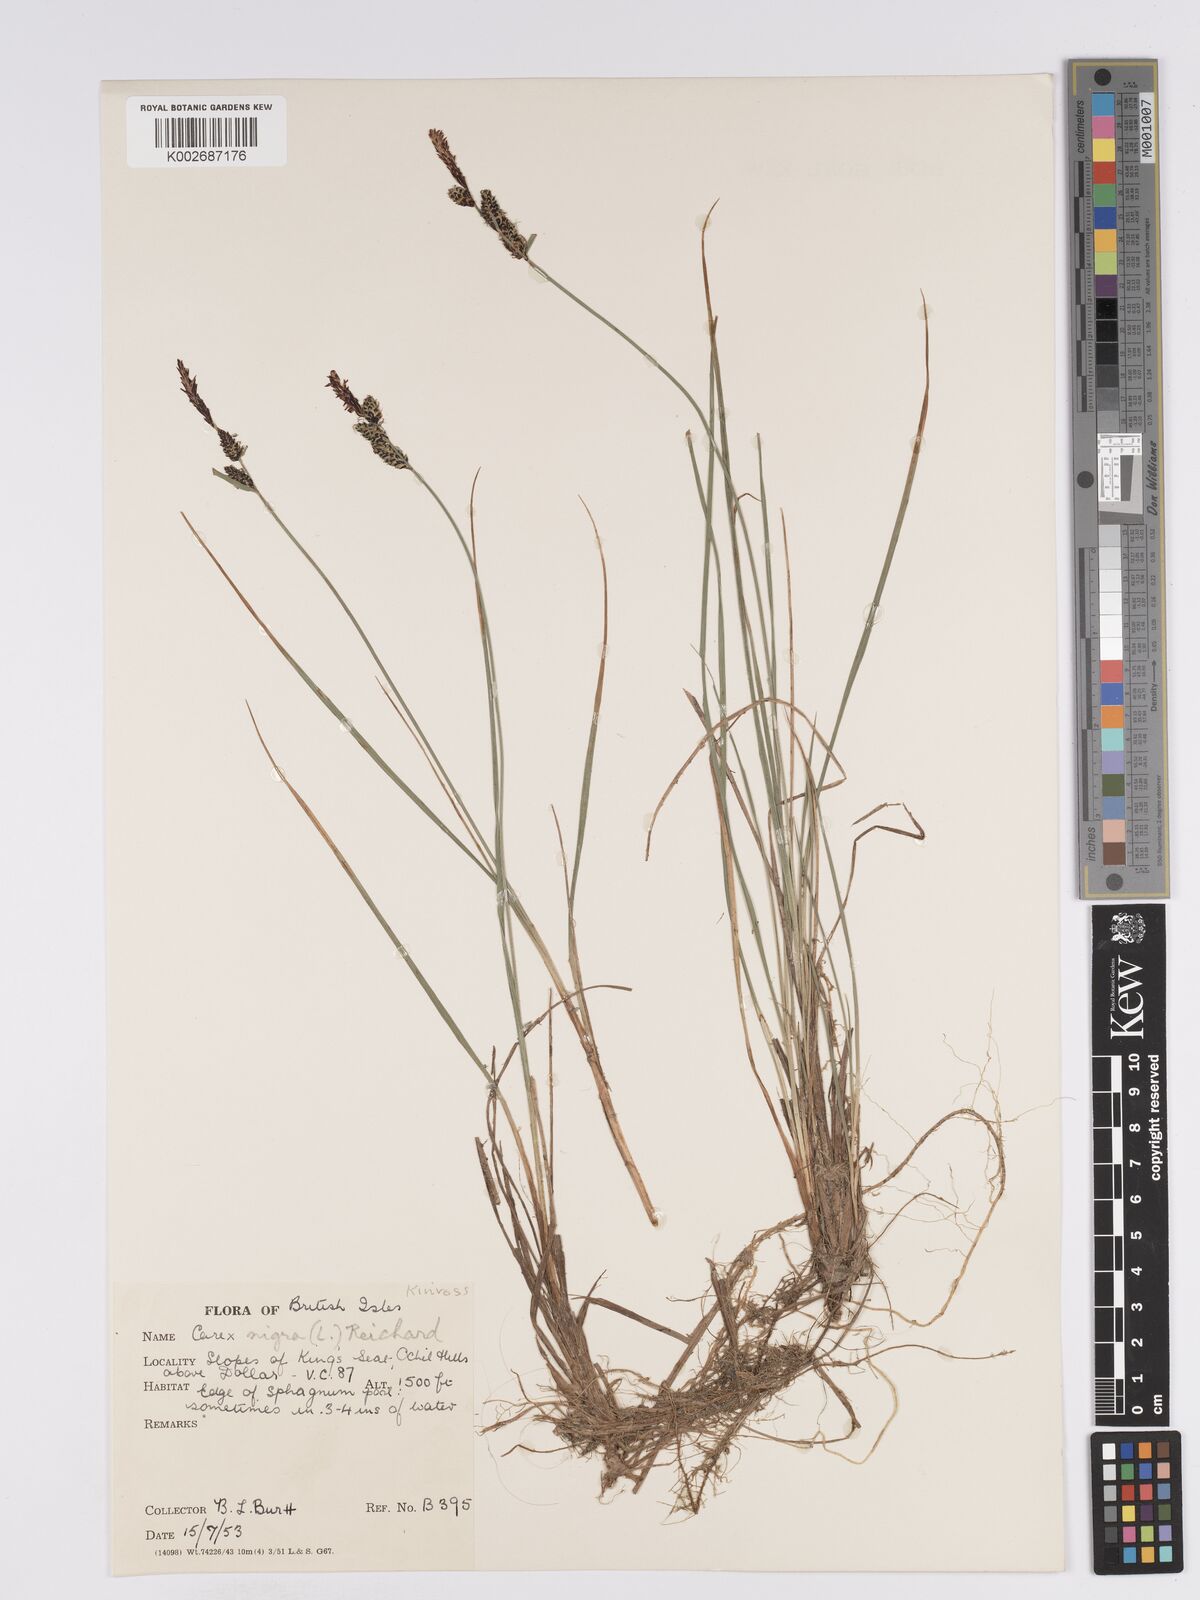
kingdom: Plantae
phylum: Tracheophyta
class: Liliopsida
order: Poales
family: Cyperaceae
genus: Carex
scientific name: Carex nigra
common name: Common sedge
